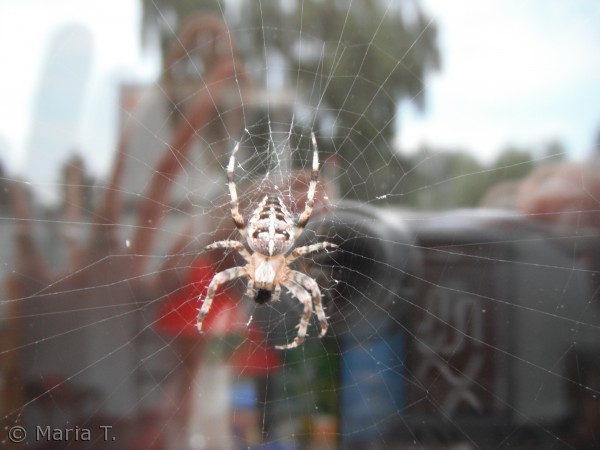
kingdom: Animalia
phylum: Arthropoda
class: Arachnida
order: Araneae
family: Araneidae
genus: Araneus
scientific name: Araneus diadematus
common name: Korsedderkop
